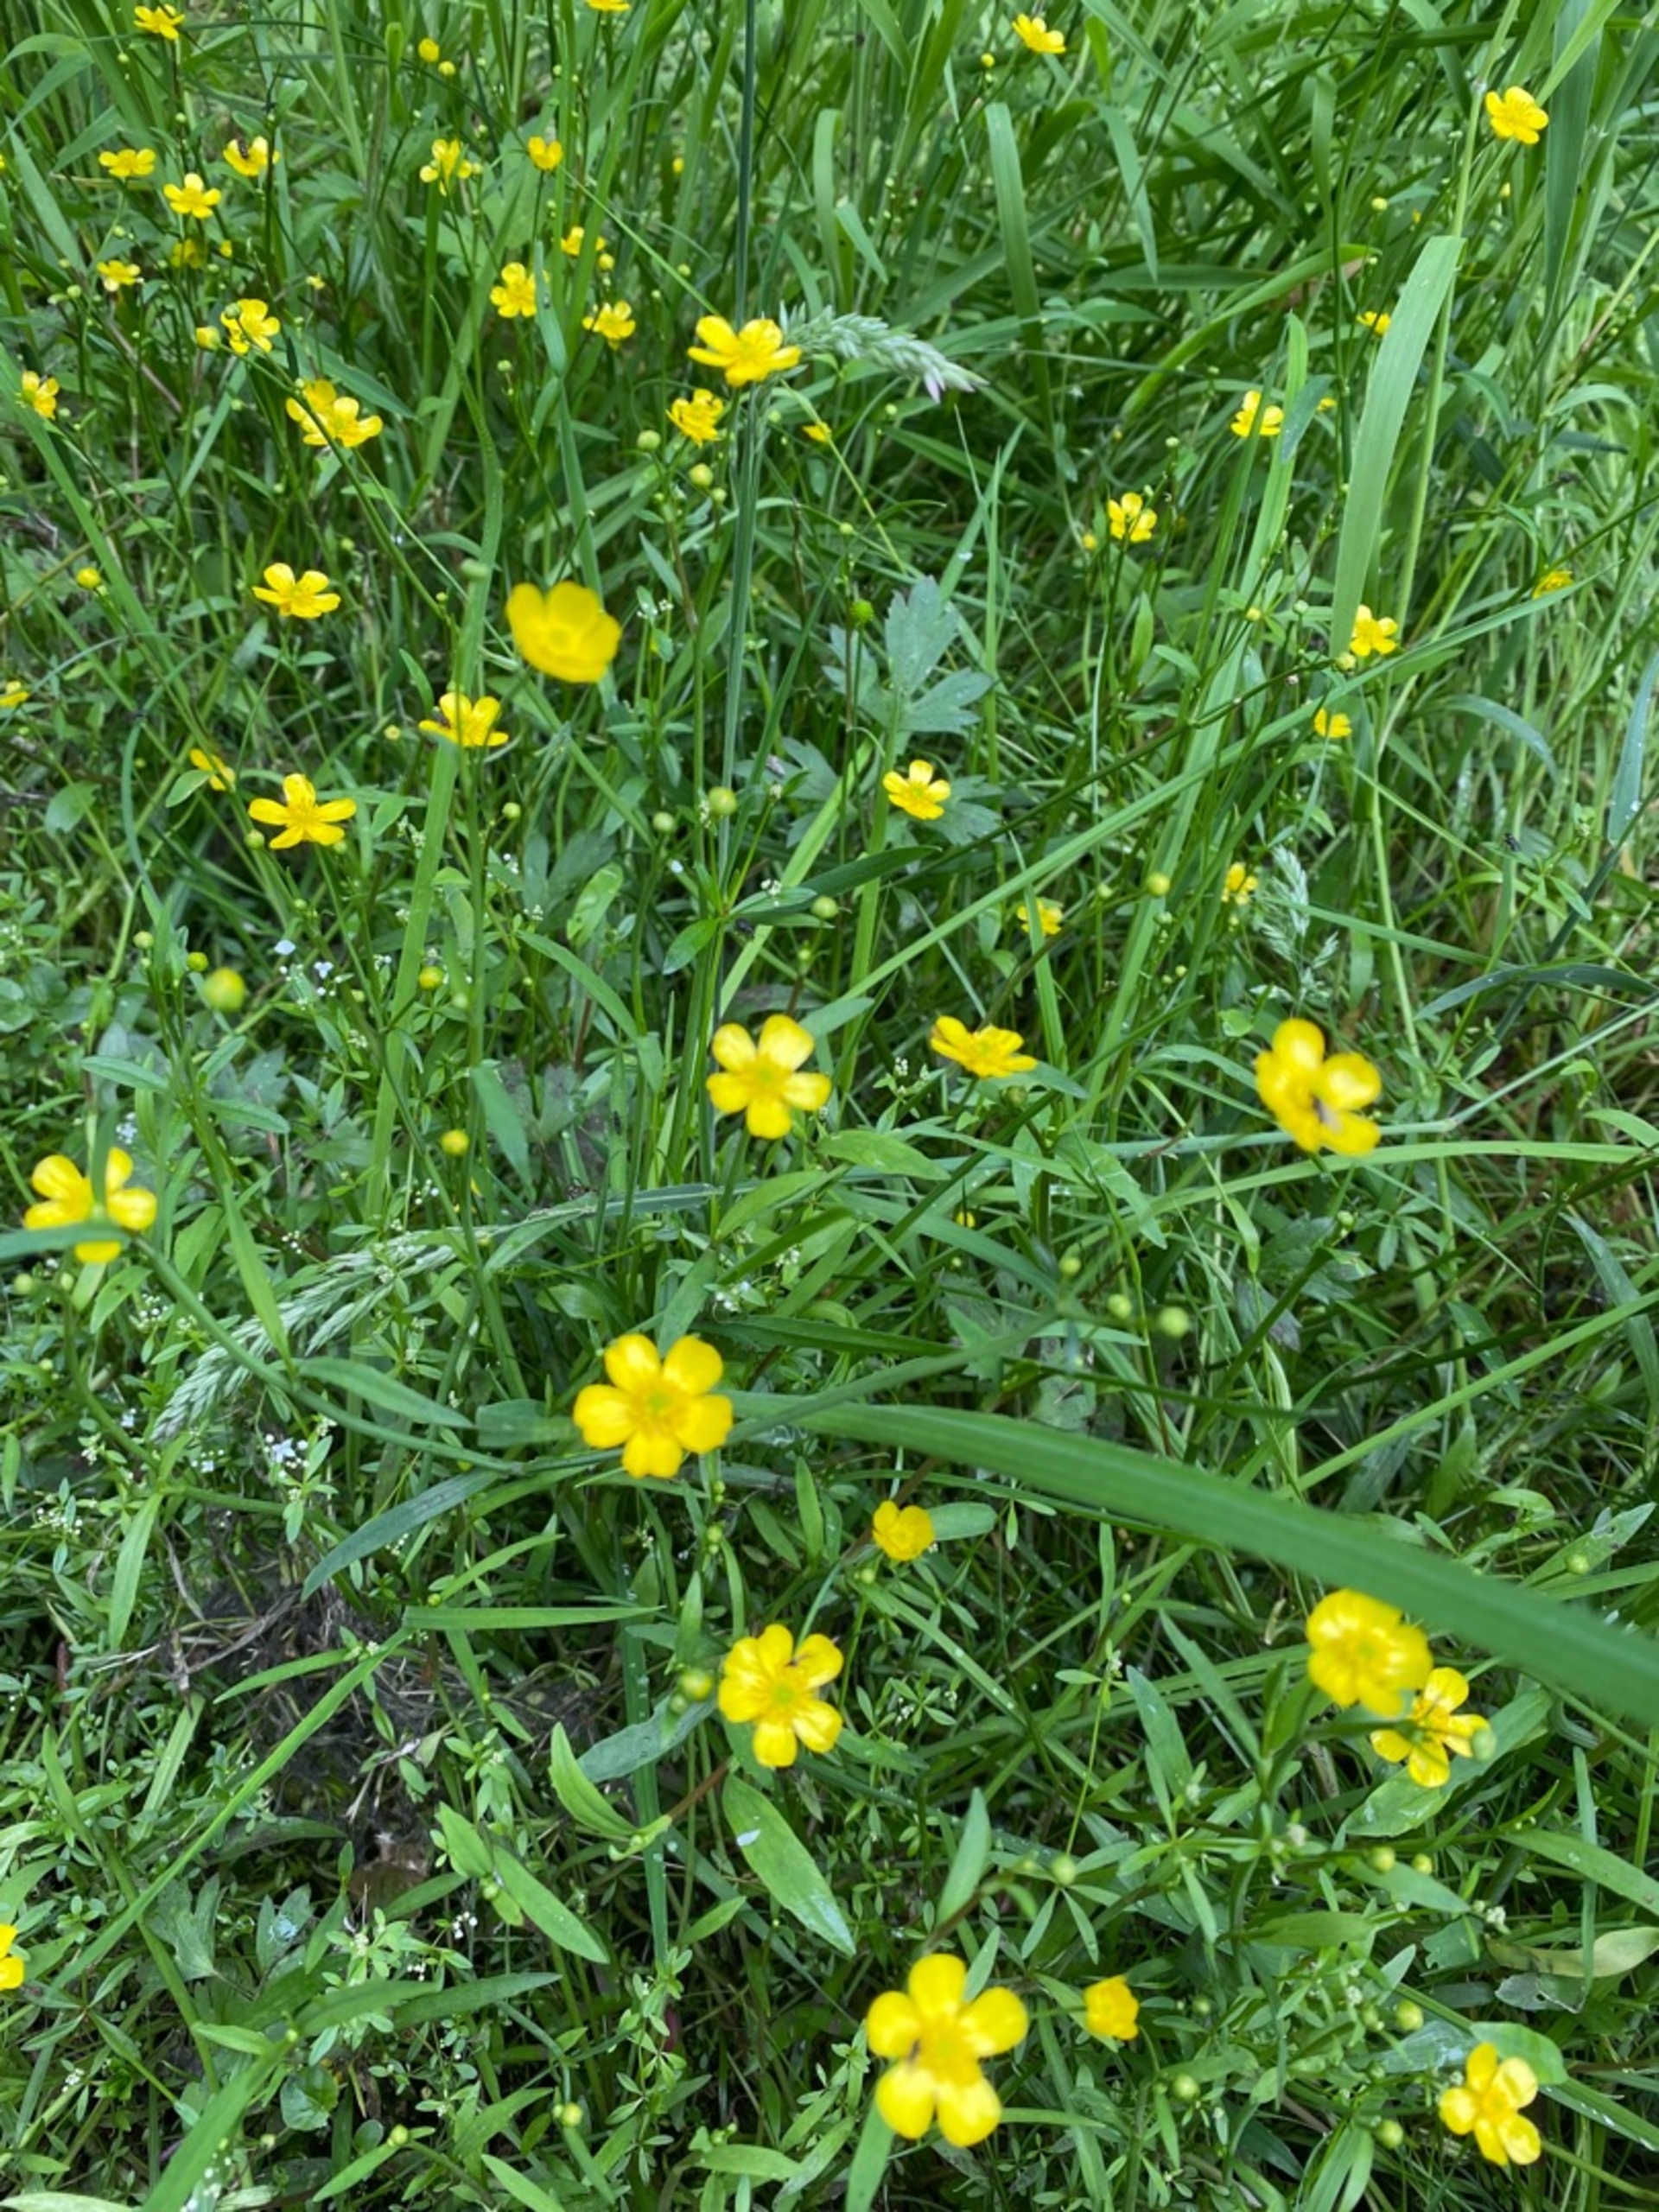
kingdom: Plantae
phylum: Tracheophyta
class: Magnoliopsida
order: Ranunculales
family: Ranunculaceae
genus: Ranunculus
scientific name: Ranunculus repens
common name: Lav ranunkel
